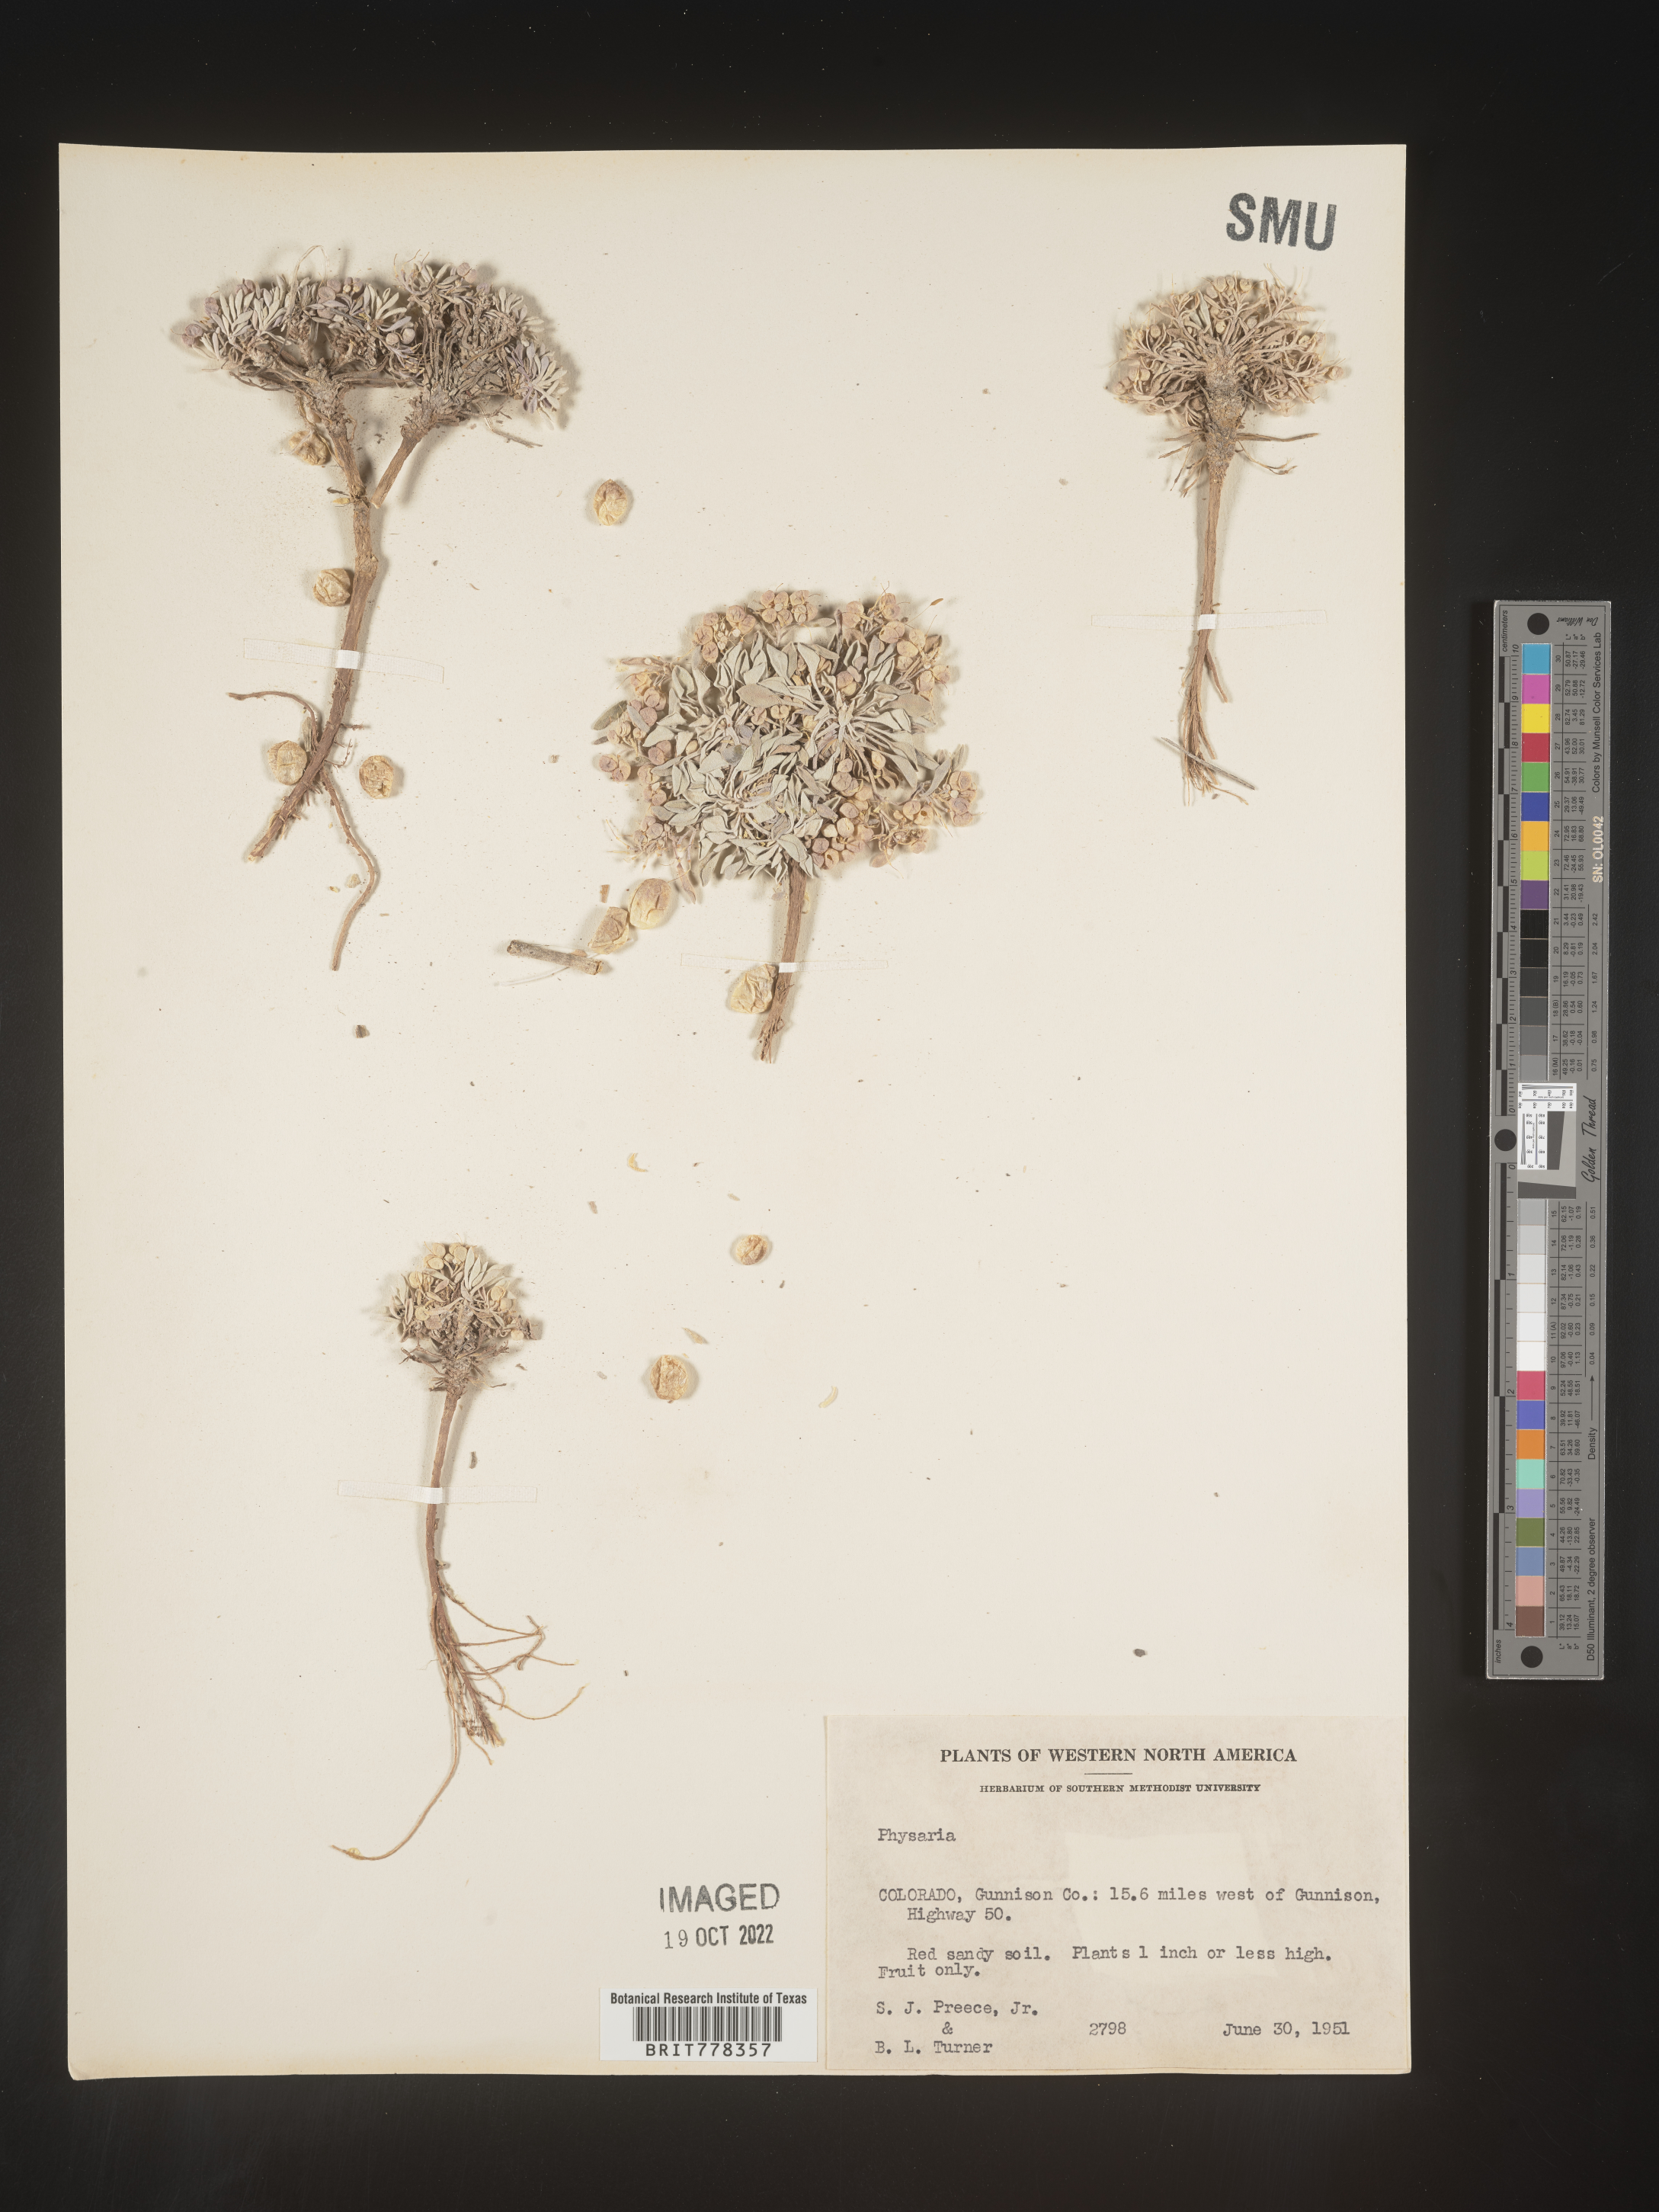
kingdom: Plantae
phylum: Tracheophyta
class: Magnoliopsida
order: Brassicales
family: Brassicaceae
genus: Physaria
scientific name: Physaria
